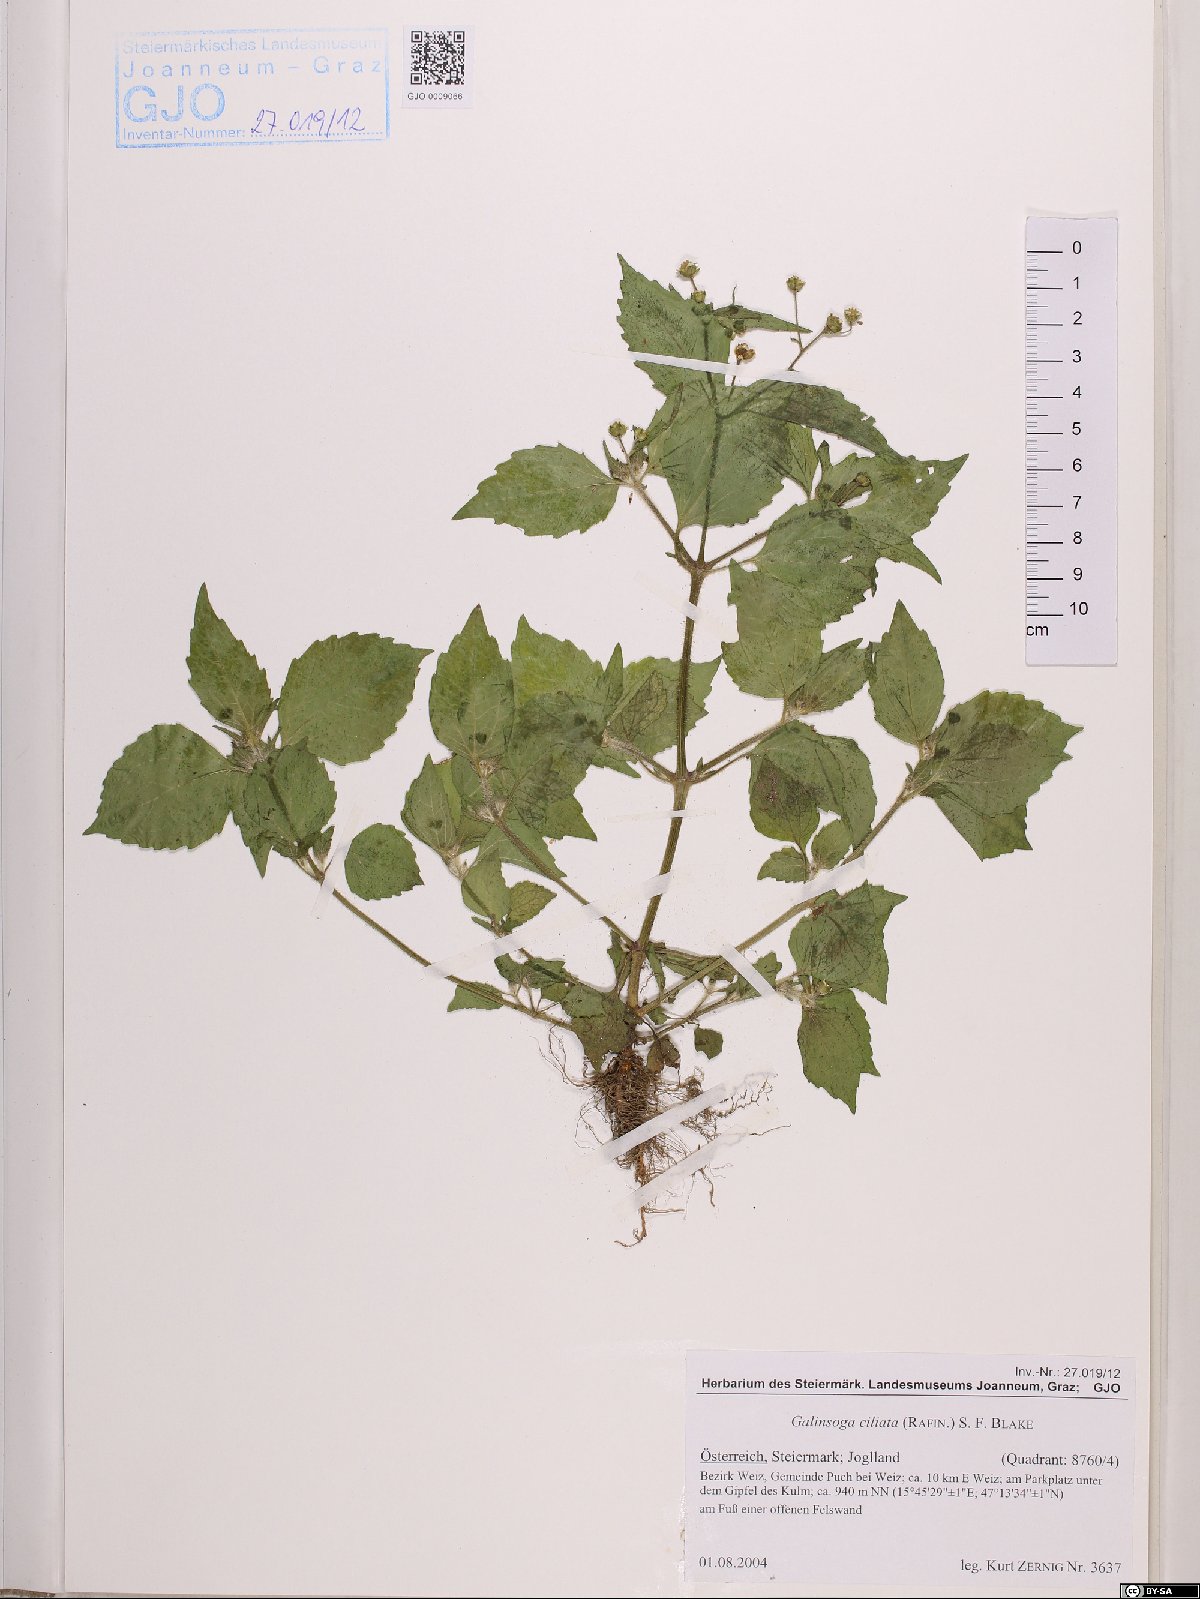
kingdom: Plantae
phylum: Tracheophyta
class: Magnoliopsida
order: Asterales
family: Asteraceae
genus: Galinsoga
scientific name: Galinsoga quadriradiata
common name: Shaggy soldier
